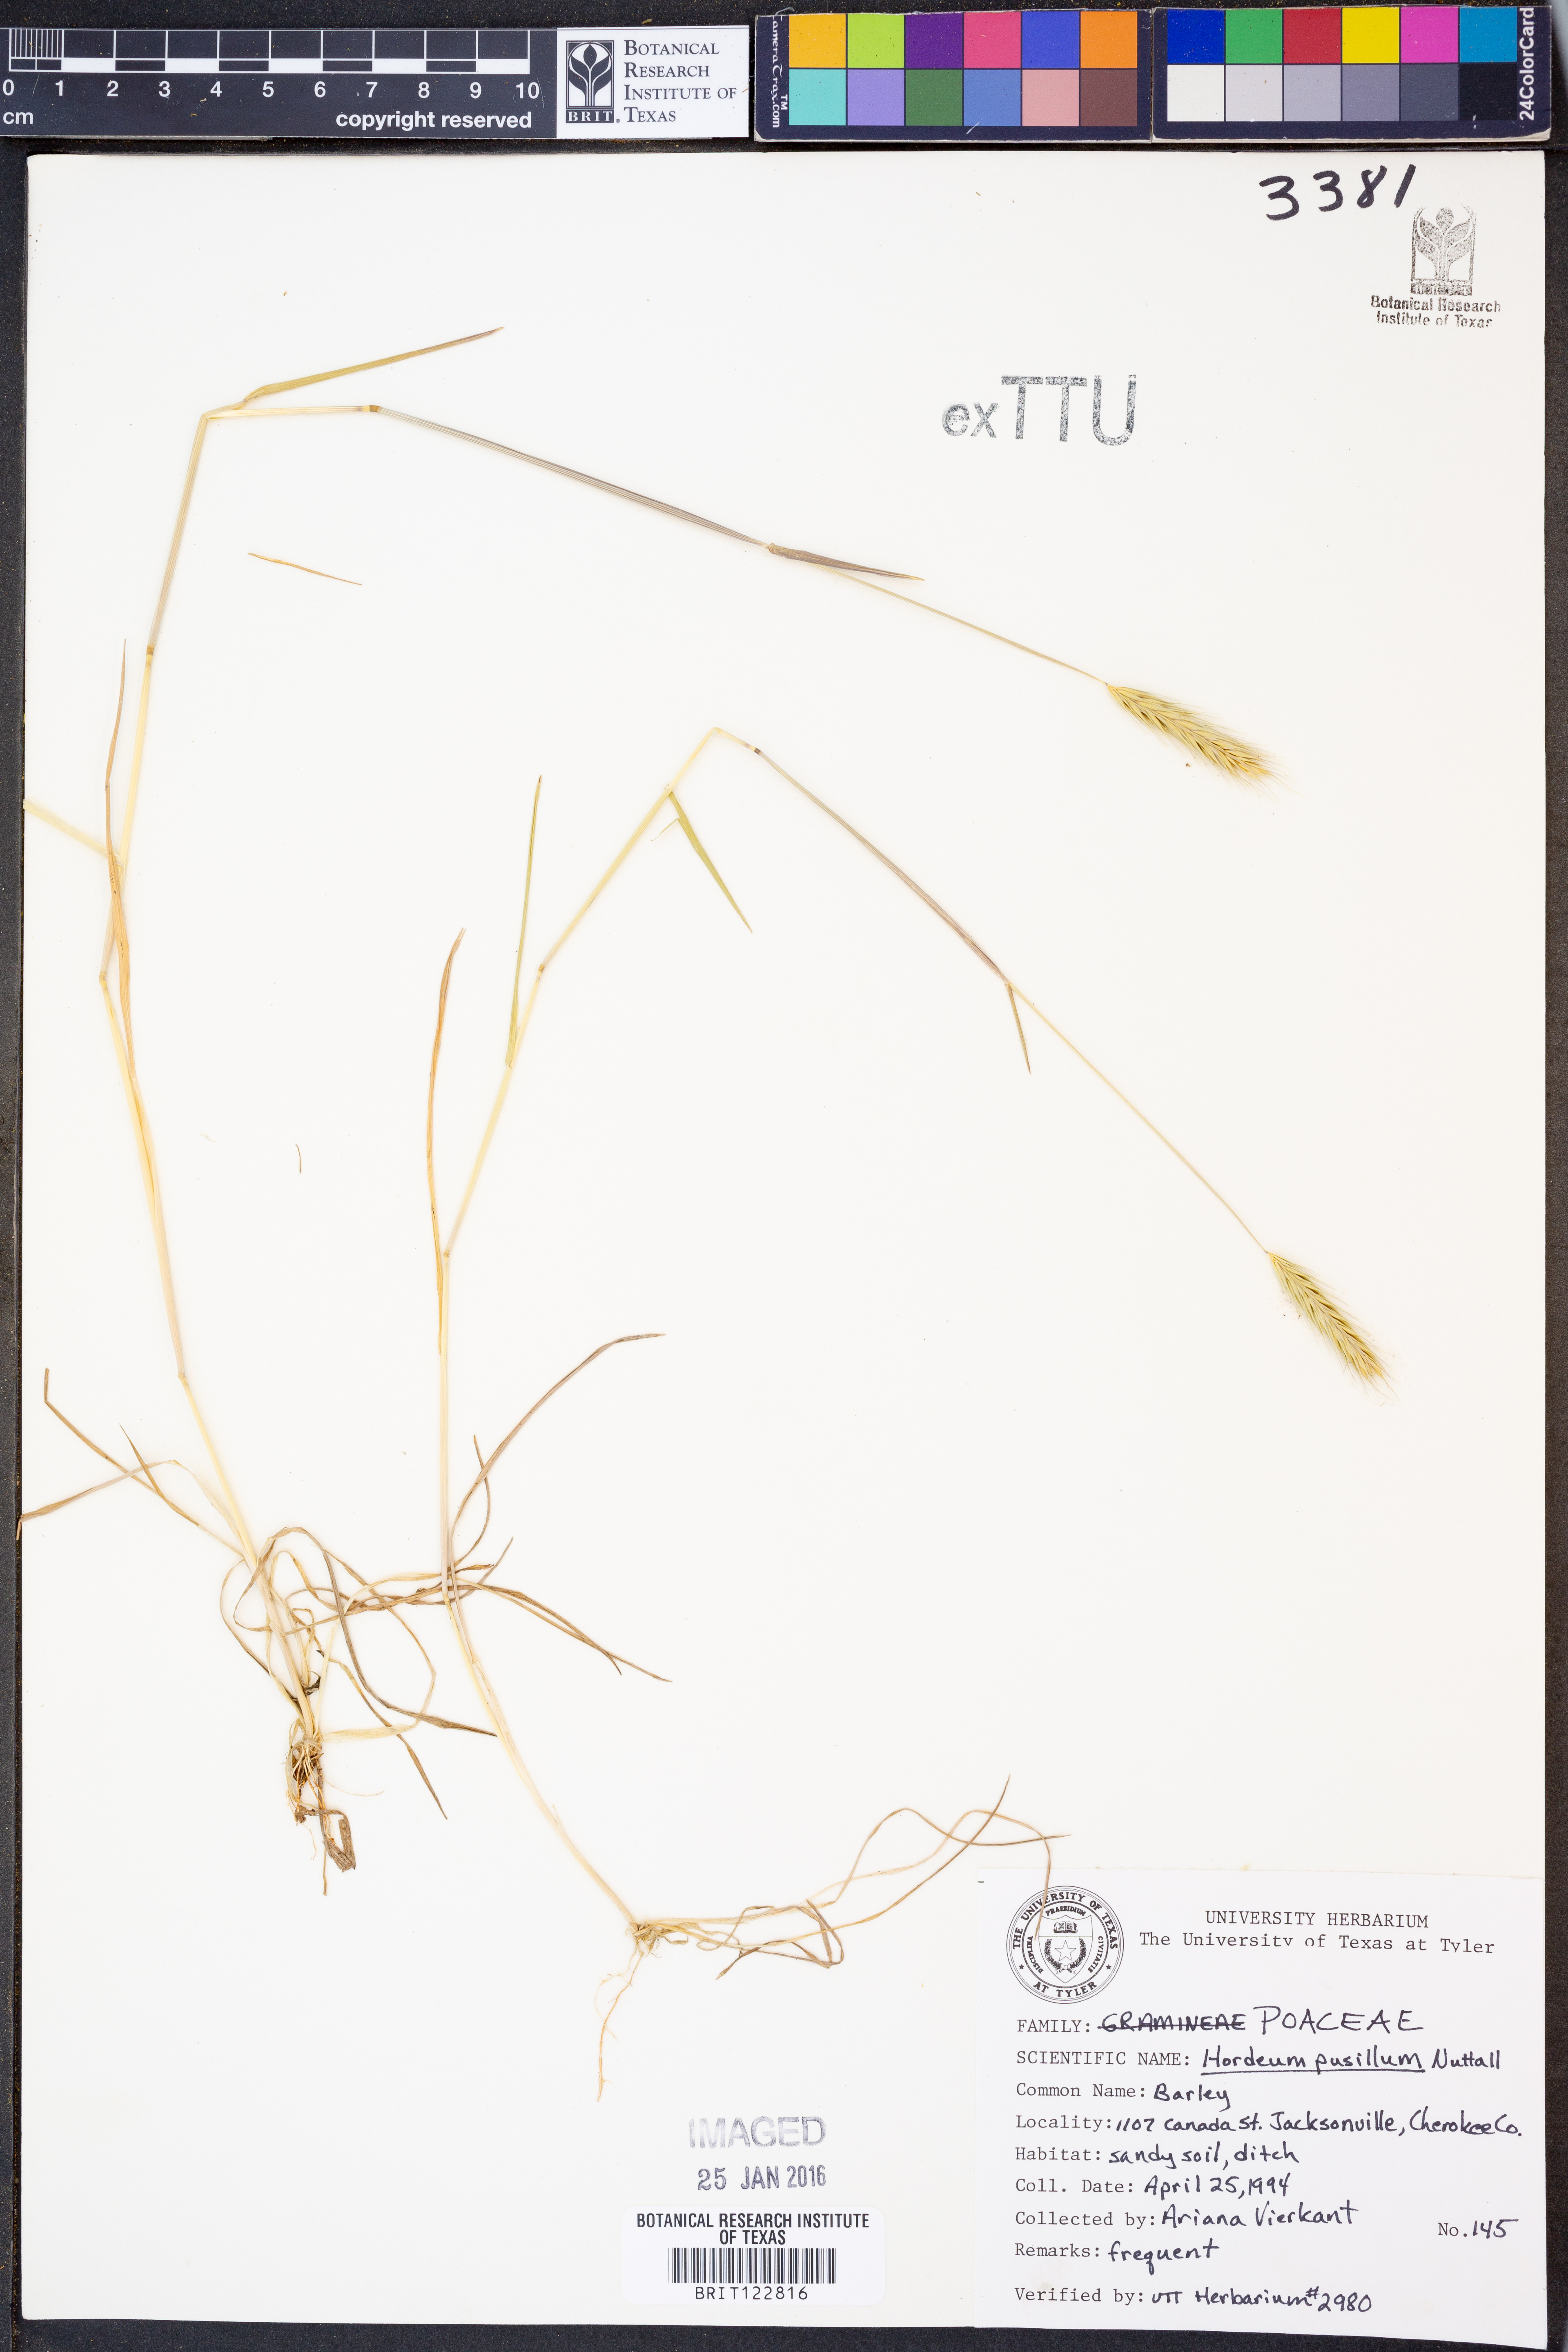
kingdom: Plantae
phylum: Tracheophyta
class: Liliopsida
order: Poales
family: Poaceae
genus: Hordeum
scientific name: Hordeum pusillum
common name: Little barley
